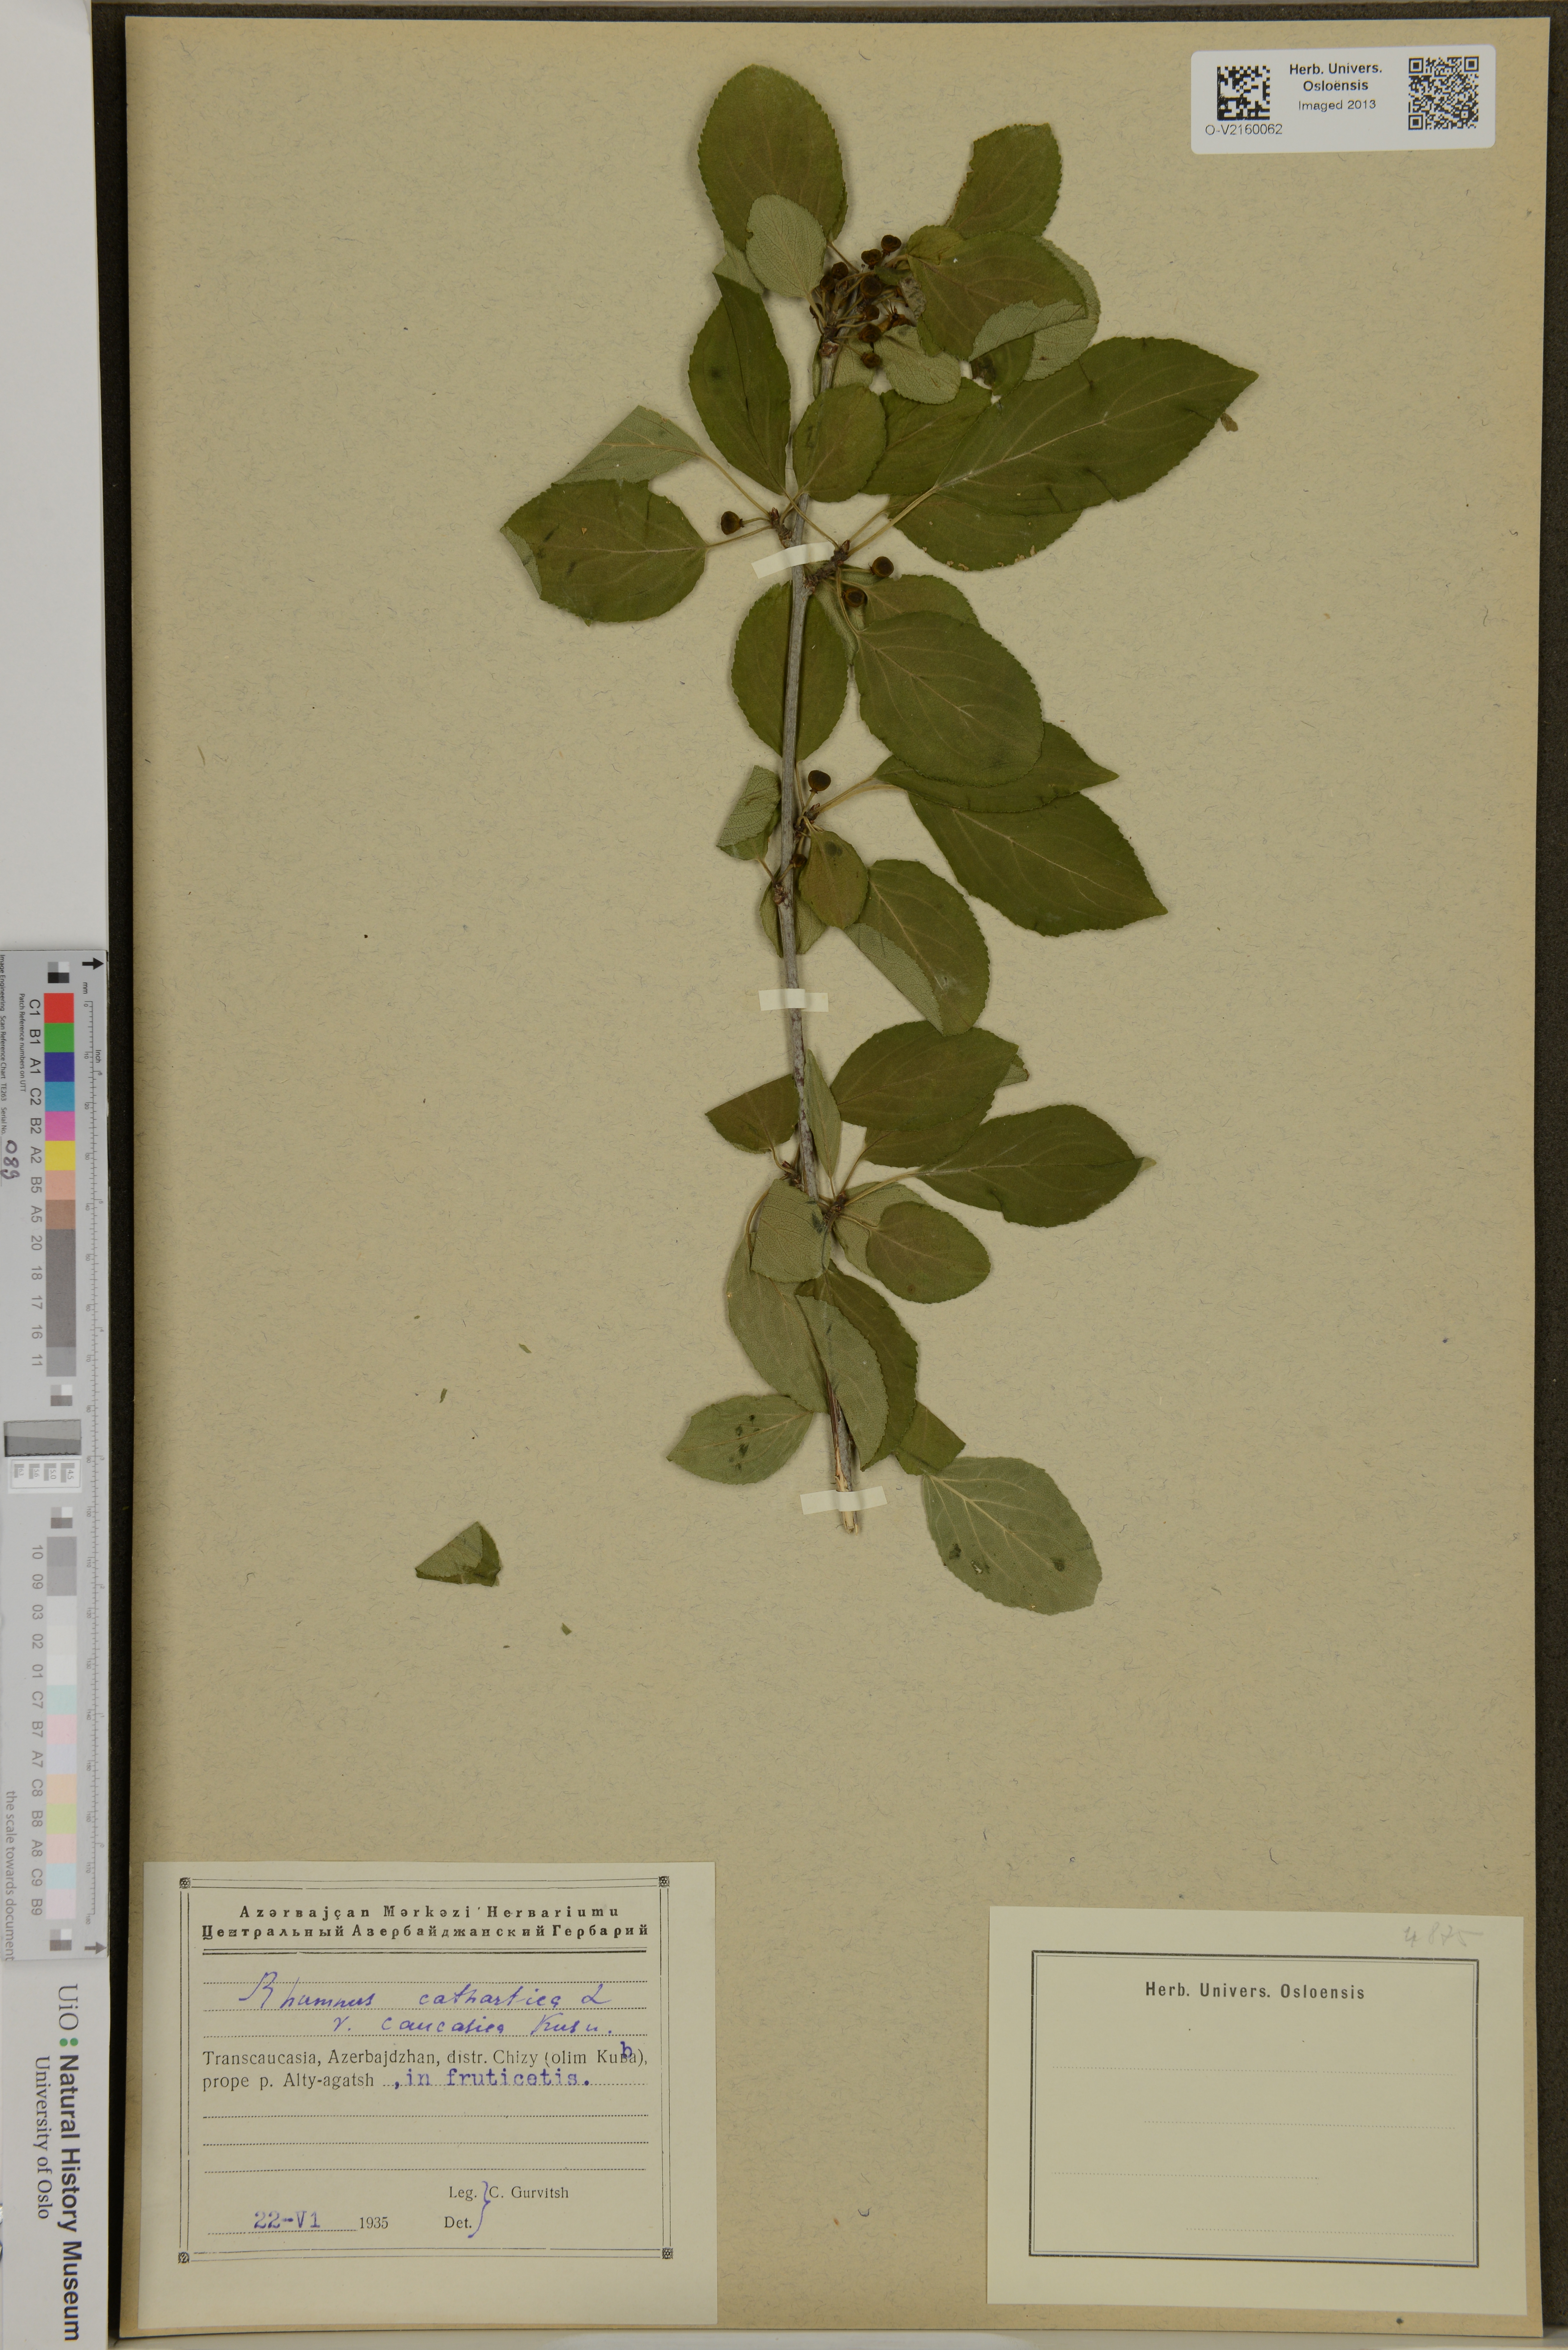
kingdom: Plantae
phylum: Tracheophyta
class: Magnoliopsida
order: Rosales
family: Rhamnaceae
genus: Rhamnus
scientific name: Rhamnus cathartica
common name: Common buckthorn
